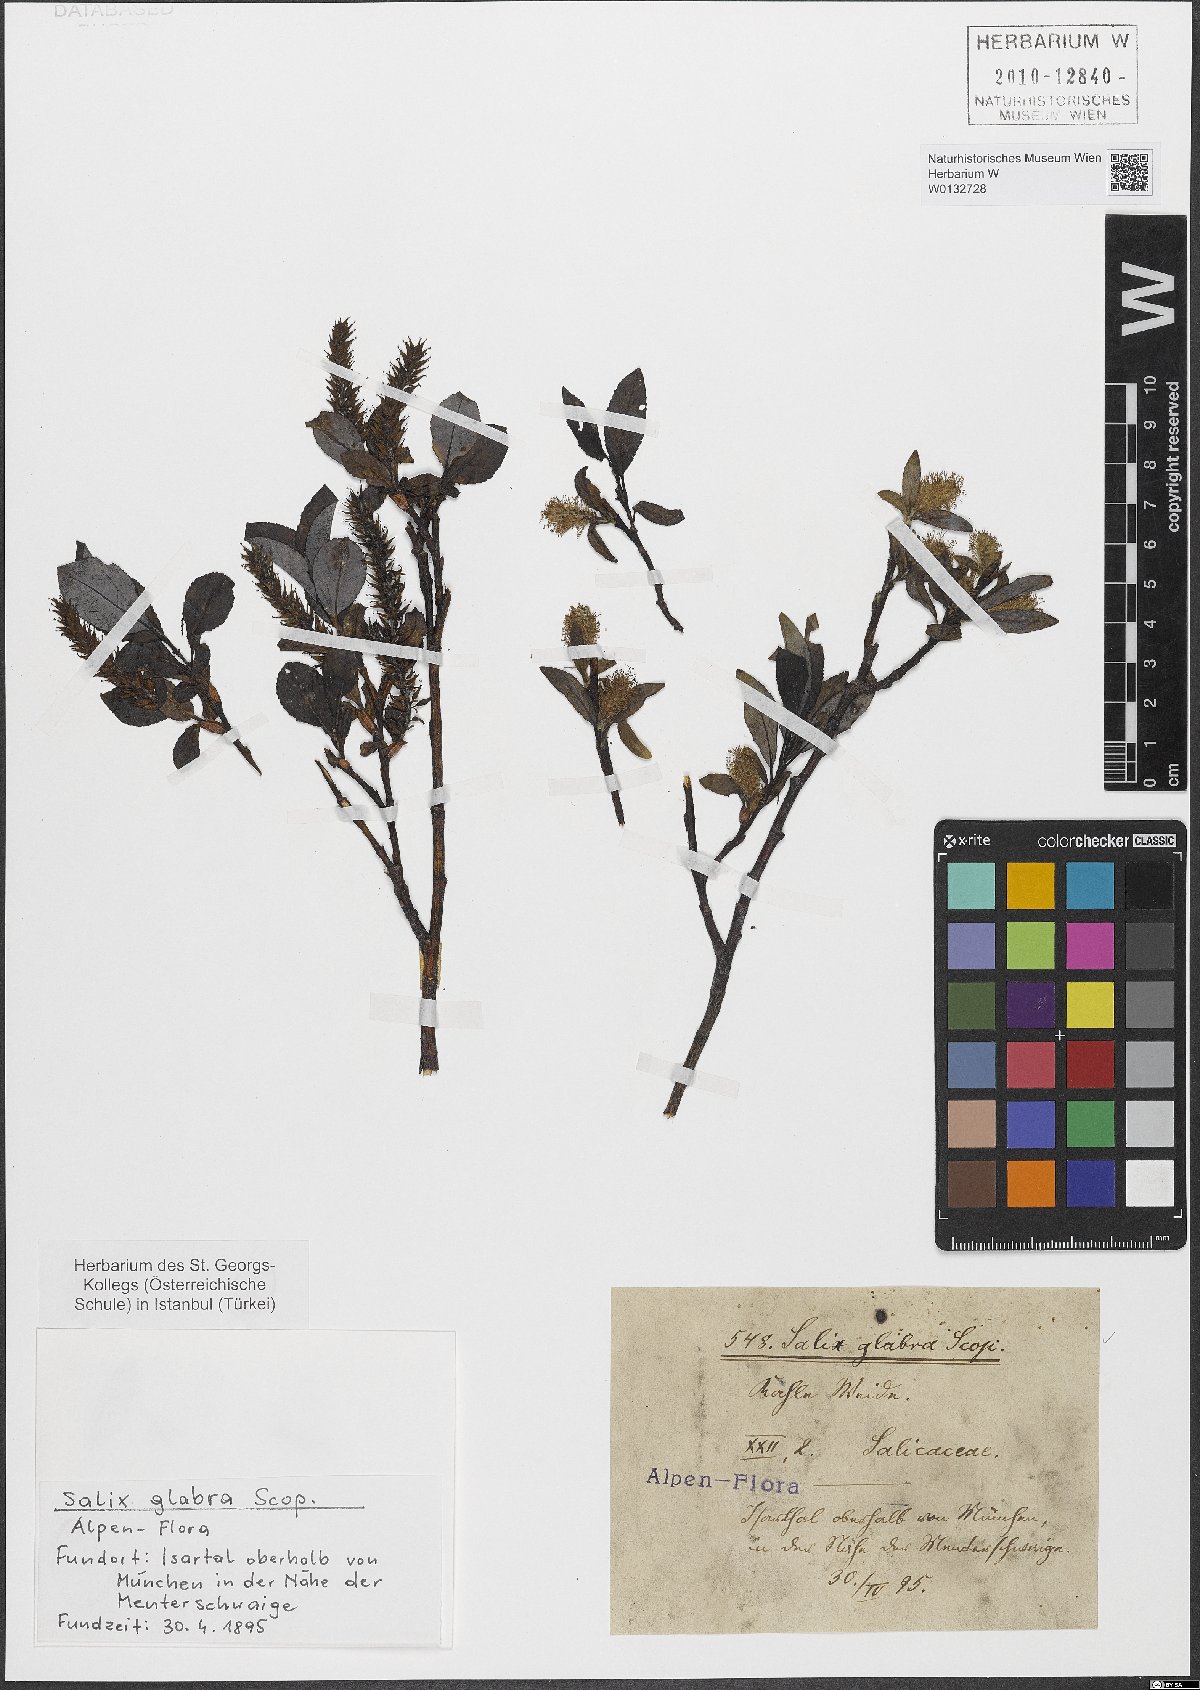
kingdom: Plantae
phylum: Tracheophyta
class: Magnoliopsida
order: Malpighiales
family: Salicaceae
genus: Salix
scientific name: Salix glabra
